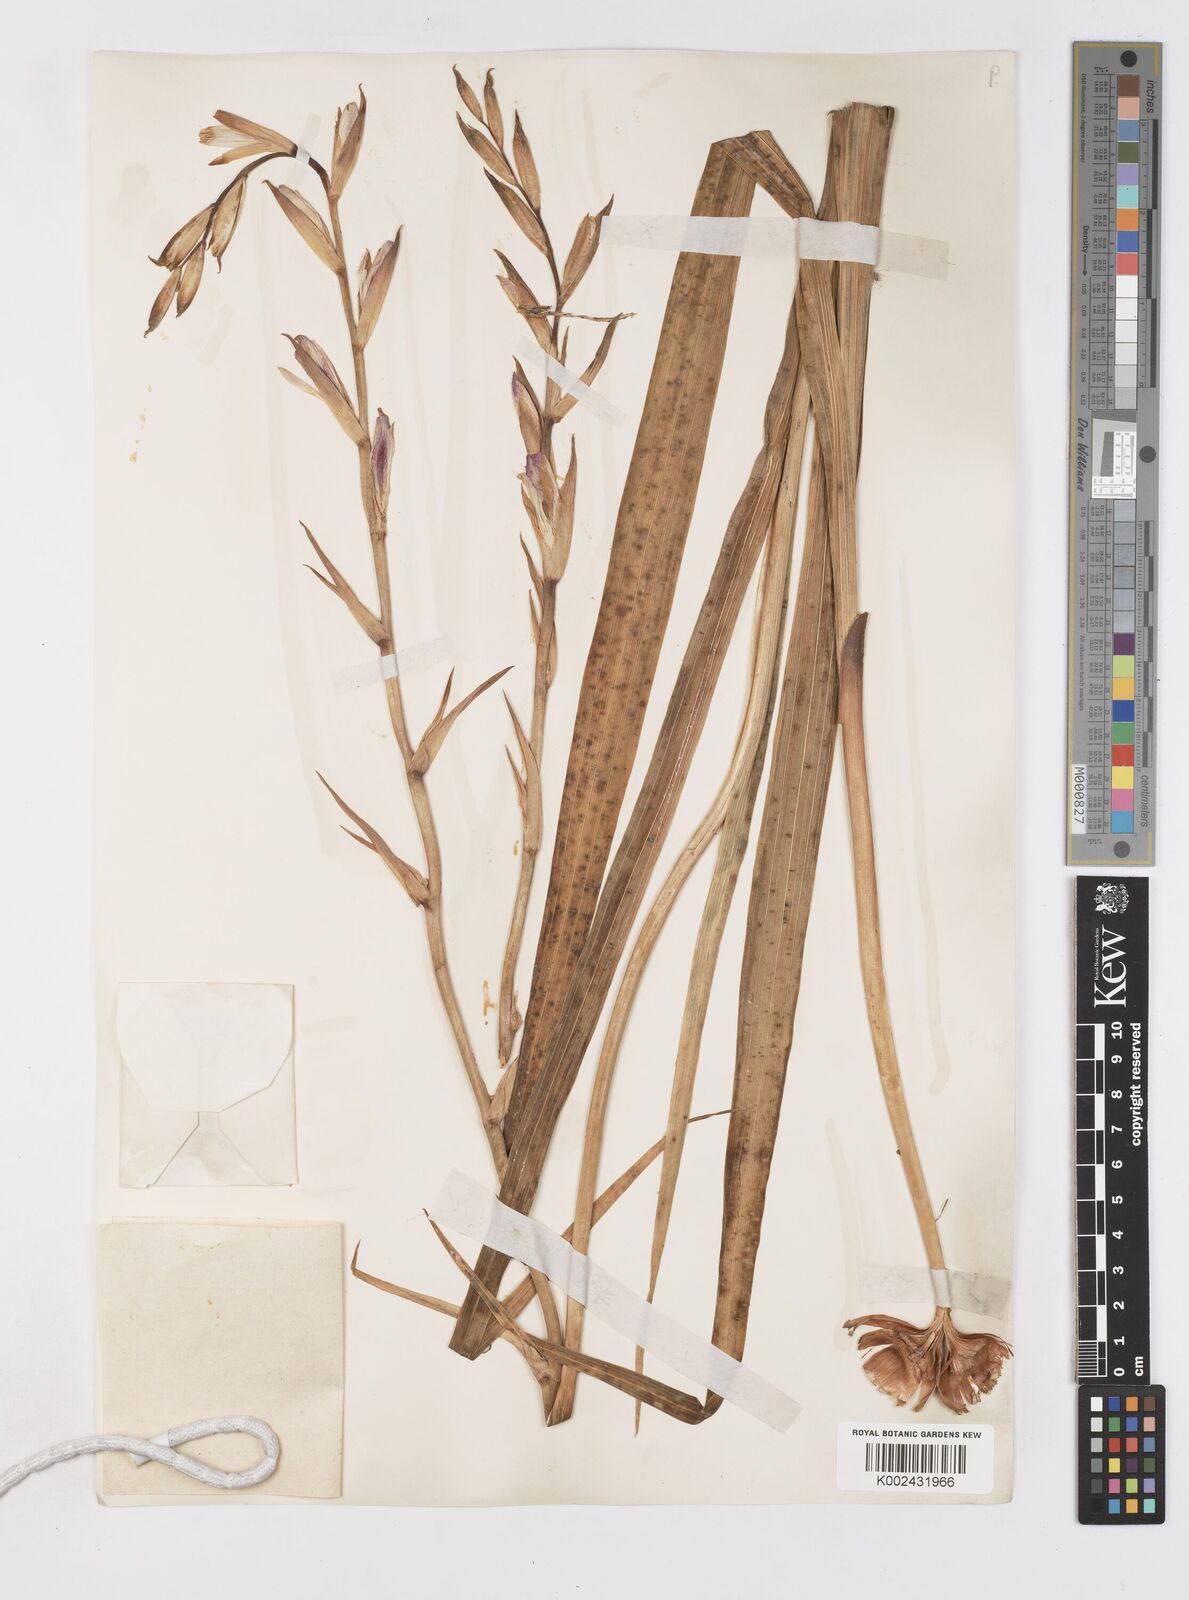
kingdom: Plantae
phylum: Tracheophyta
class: Liliopsida
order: Asparagales
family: Iridaceae
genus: Gladiolus
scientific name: Gladiolus
